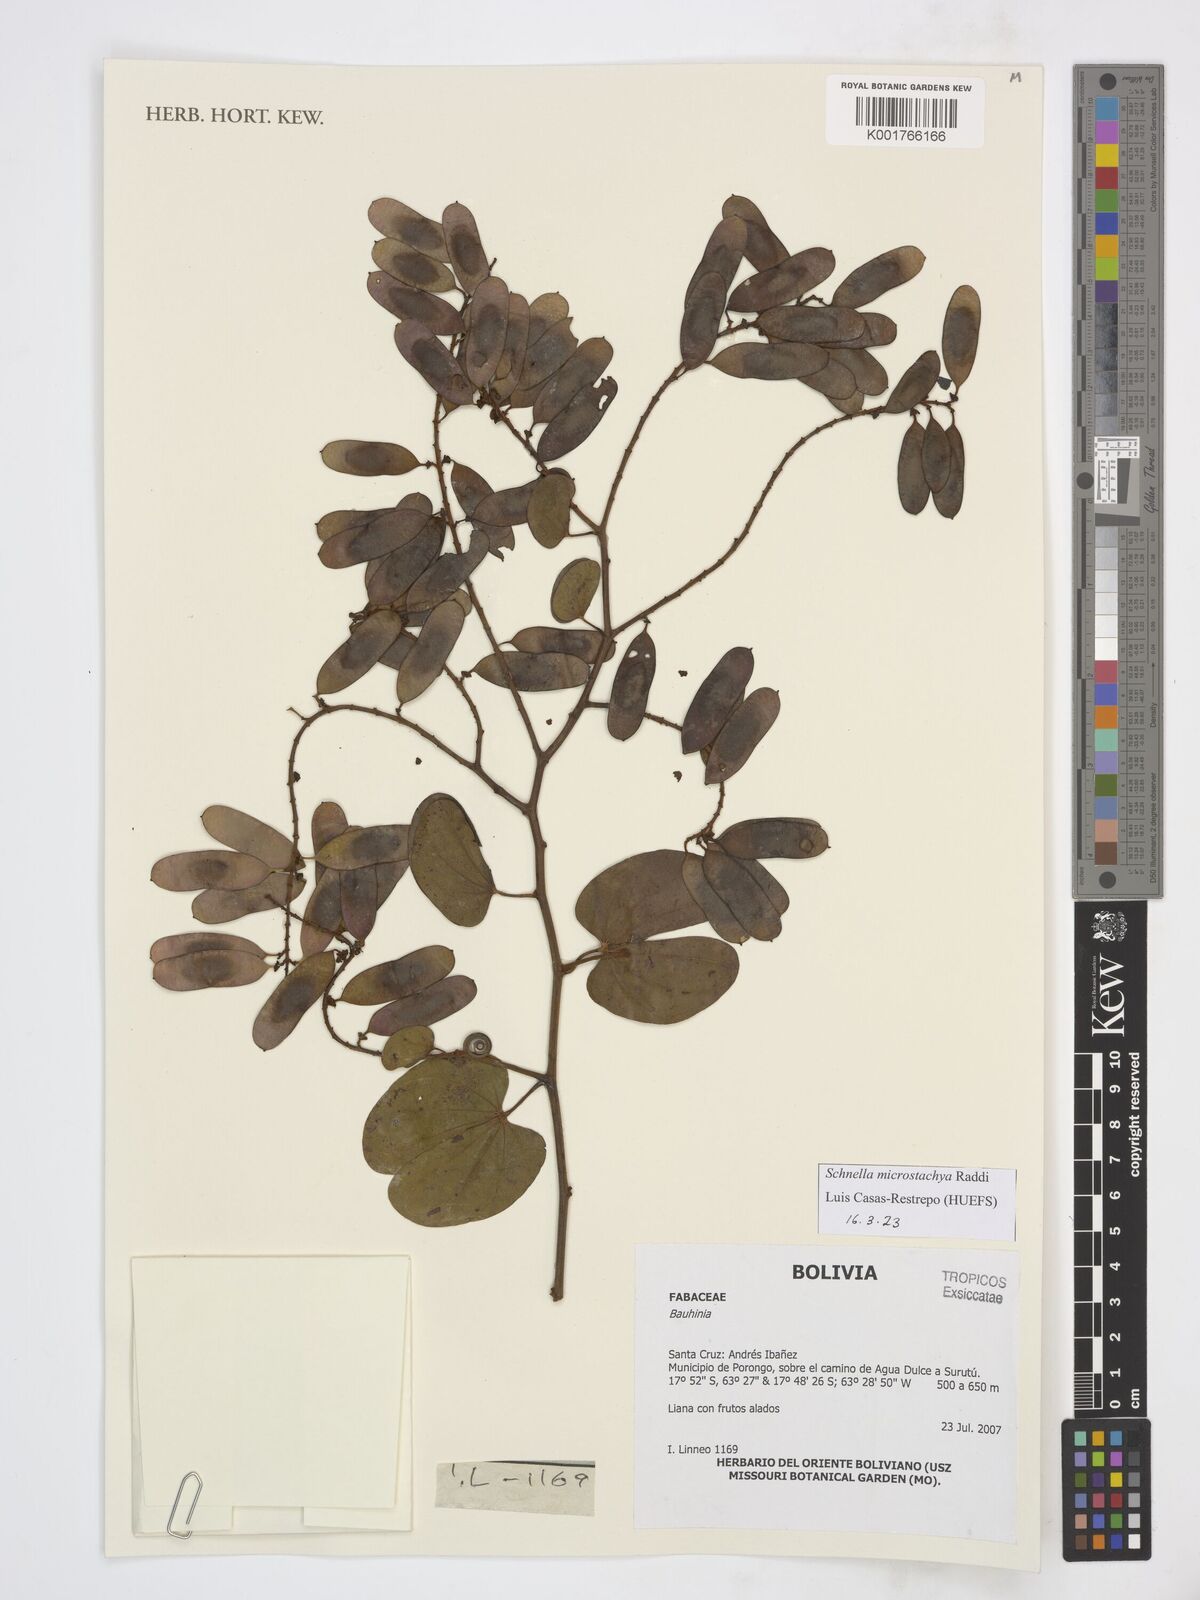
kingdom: Plantae
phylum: Tracheophyta
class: Magnoliopsida
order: Fabales
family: Fabaceae
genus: Schnella
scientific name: Schnella microstachya
